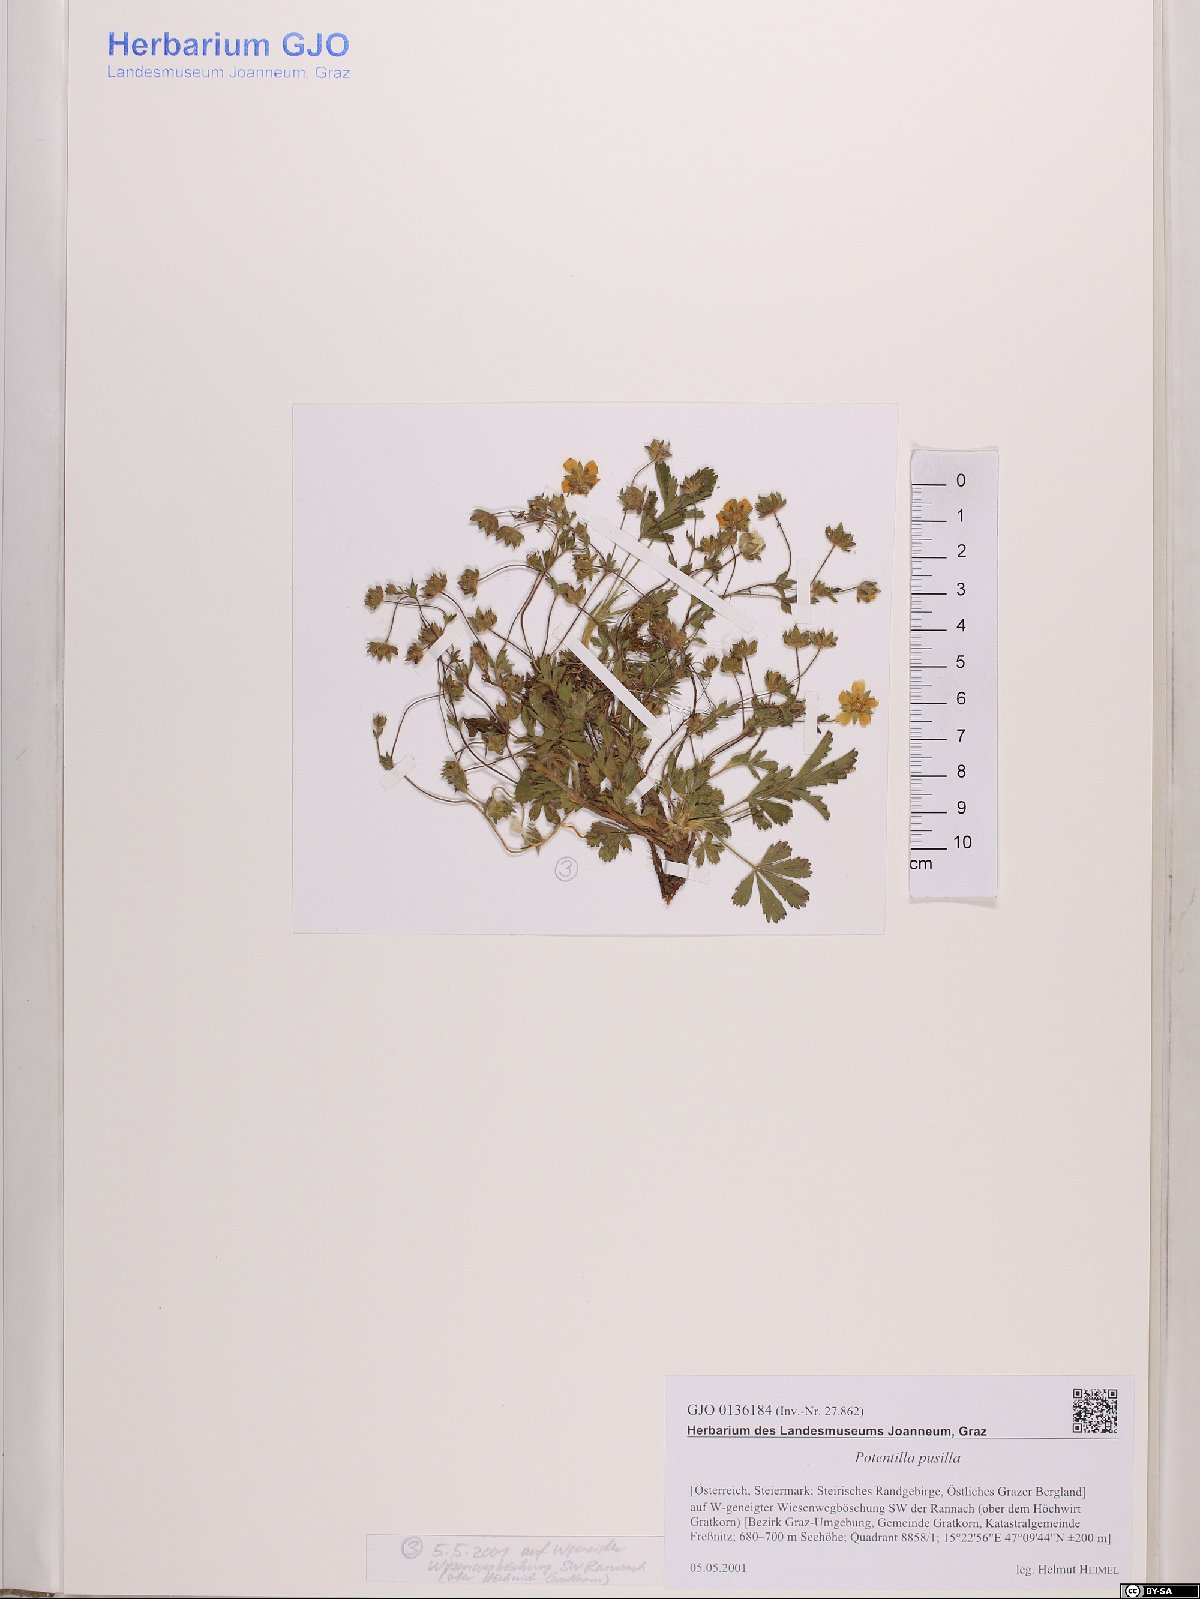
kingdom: Plantae
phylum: Tracheophyta
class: Magnoliopsida
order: Rosales
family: Rosaceae
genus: Potentilla
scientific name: Potentilla pusilla
